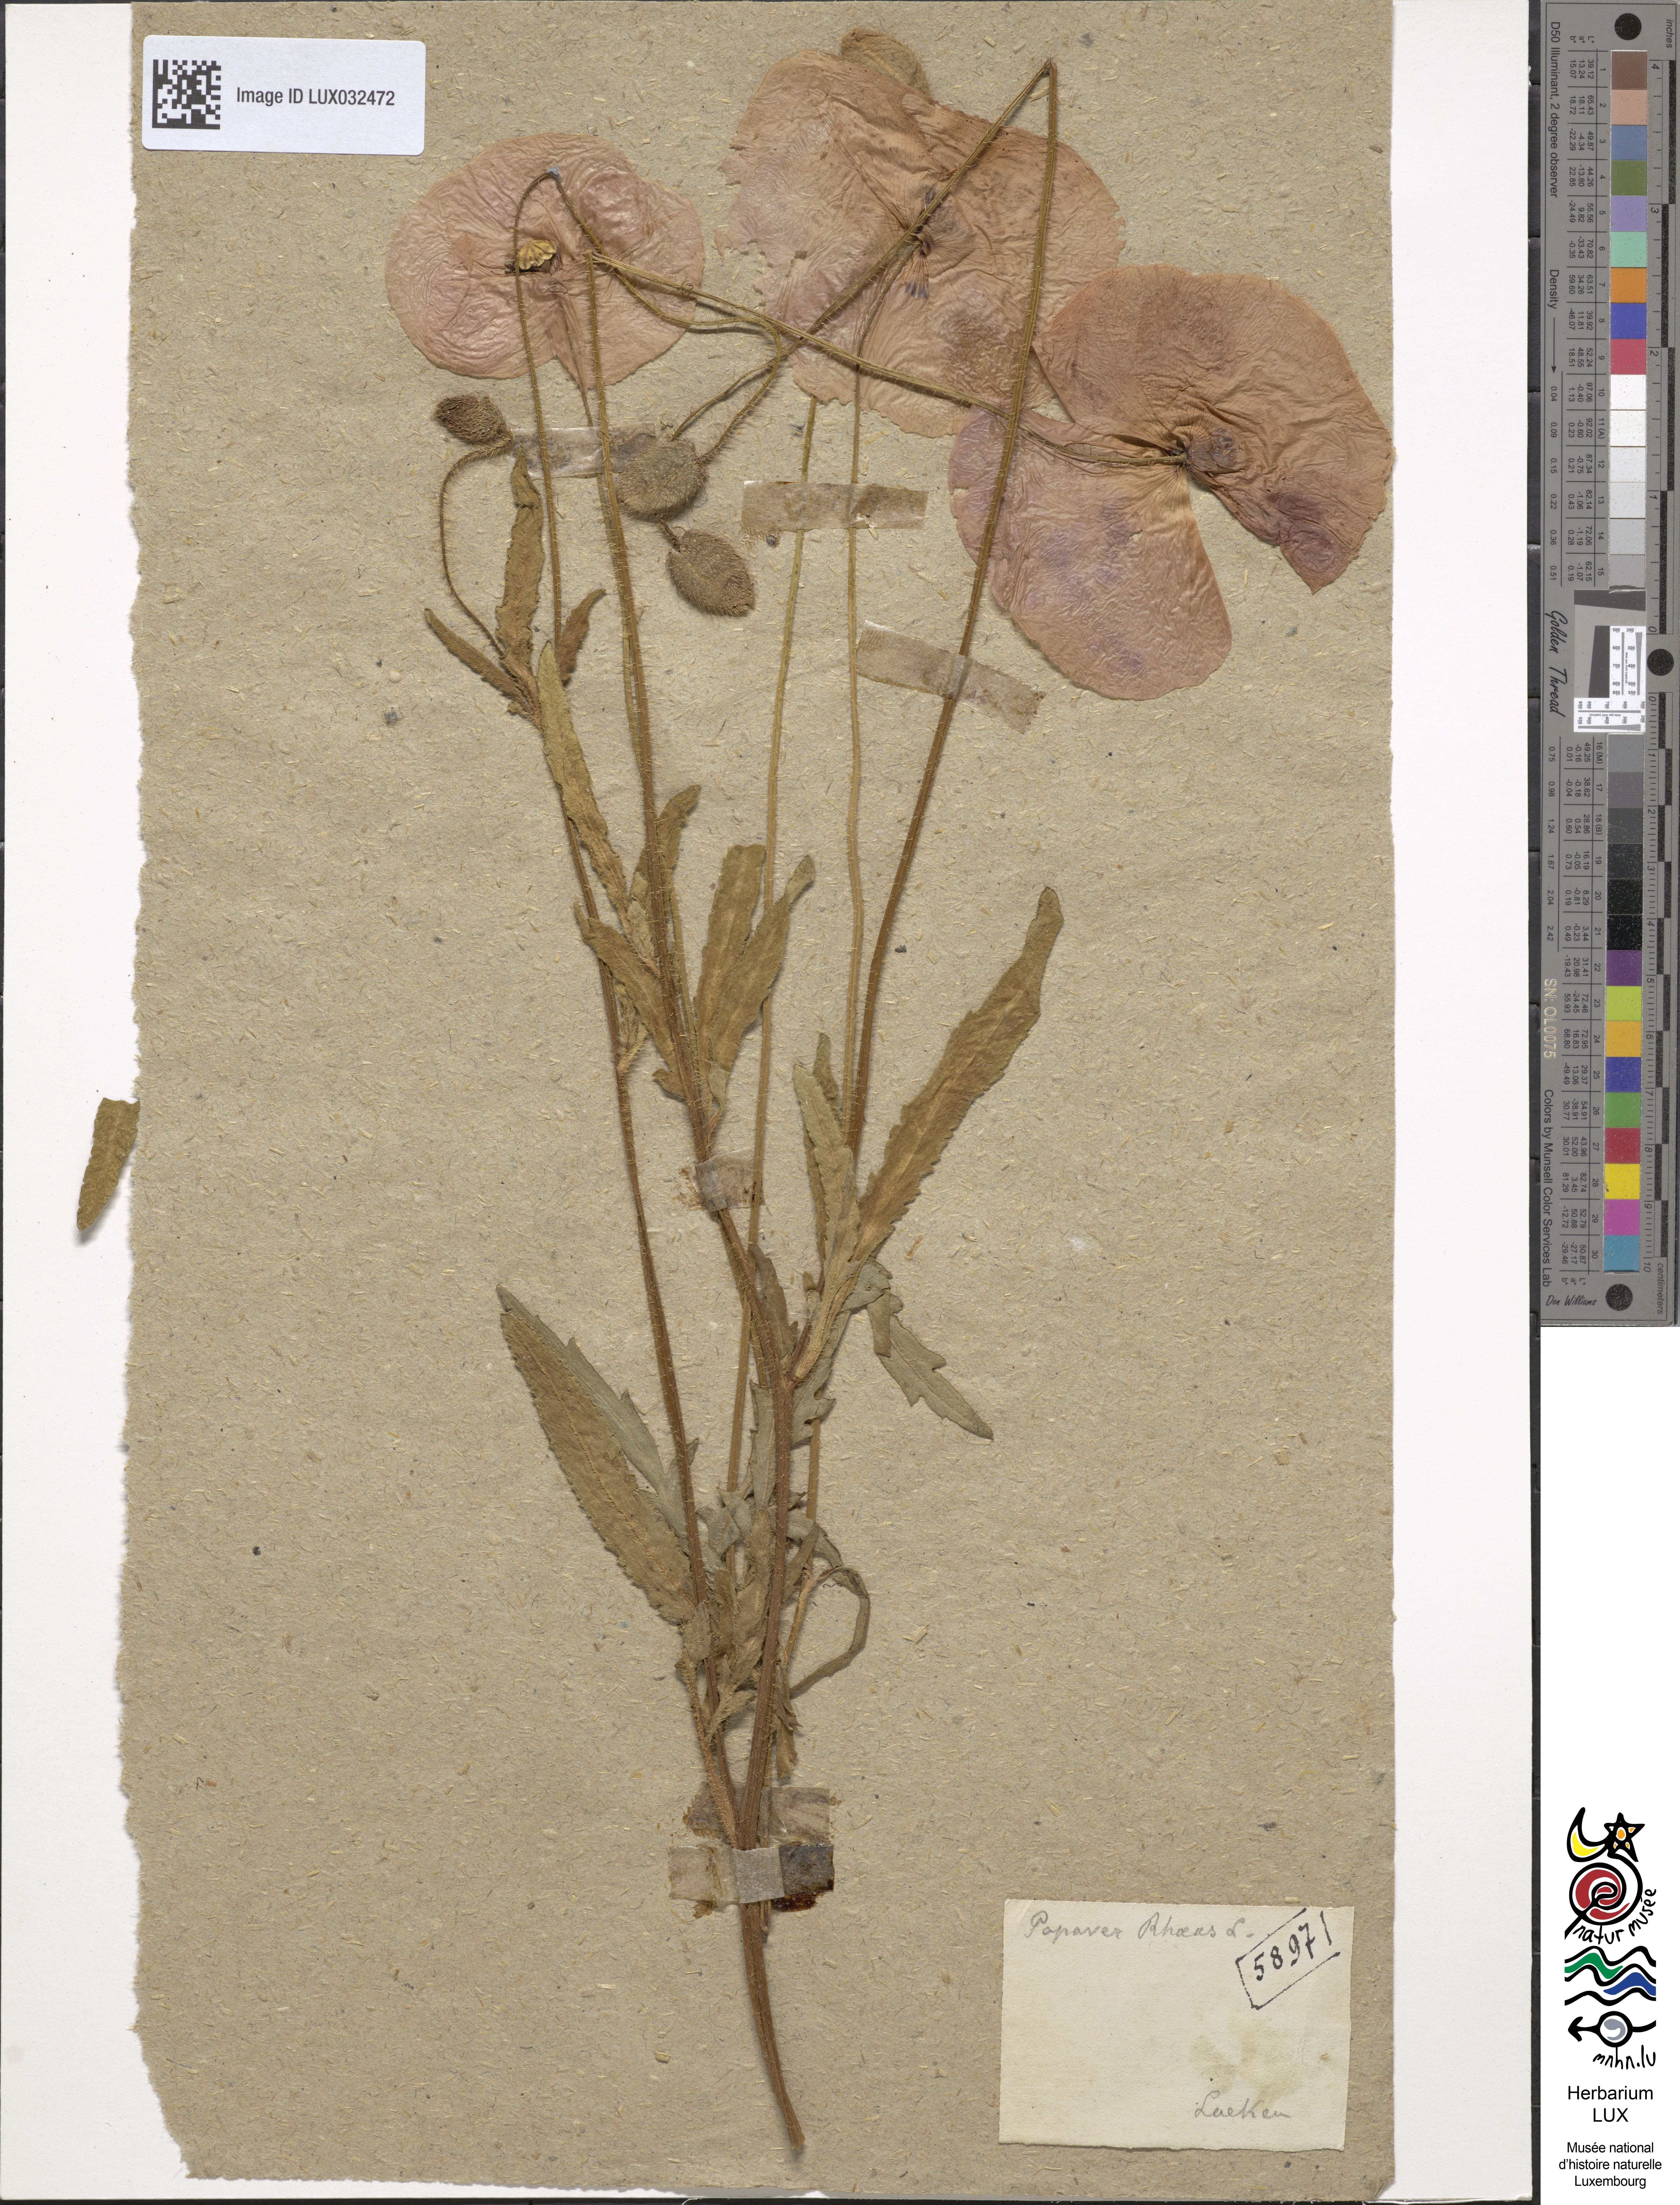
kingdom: Plantae
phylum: Tracheophyta
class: Magnoliopsida
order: Ranunculales
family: Papaveraceae
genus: Papaver
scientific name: Papaver rhoeas
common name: Corn poppy
